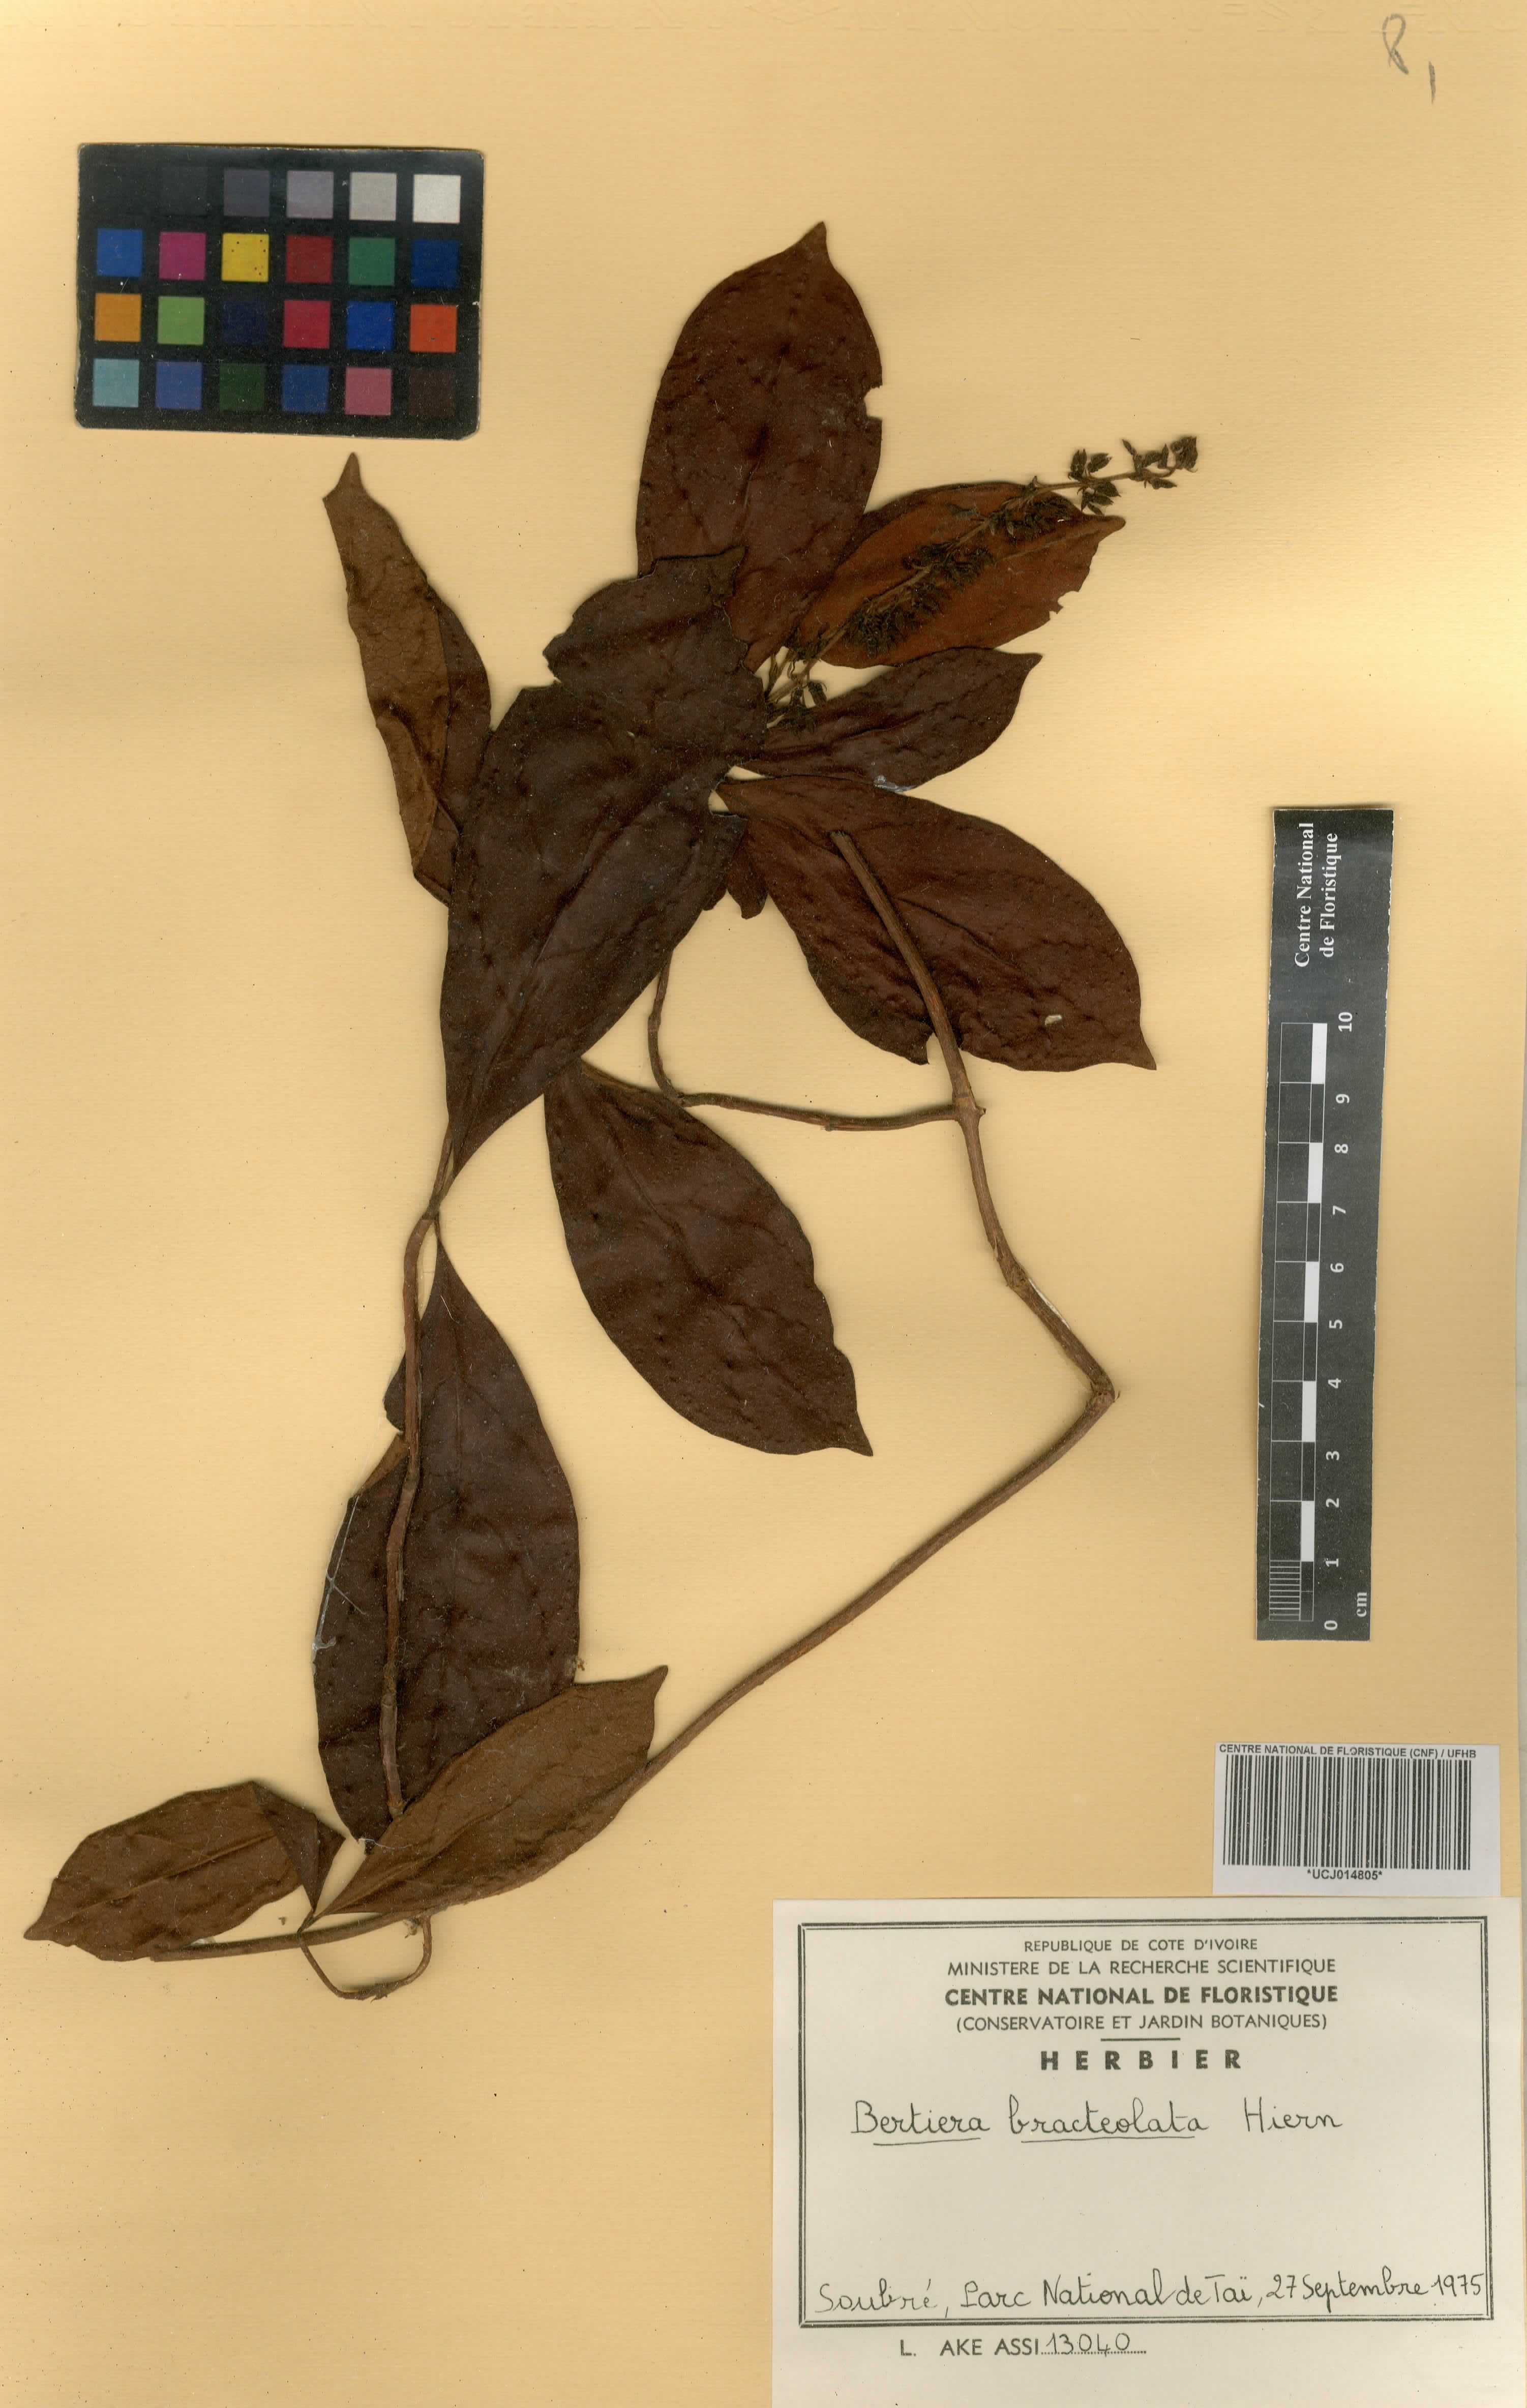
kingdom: Plantae
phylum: Tracheophyta
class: Magnoliopsida
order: Gentianales
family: Rubiaceae
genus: Bertiera
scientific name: Bertiera bracteolata
